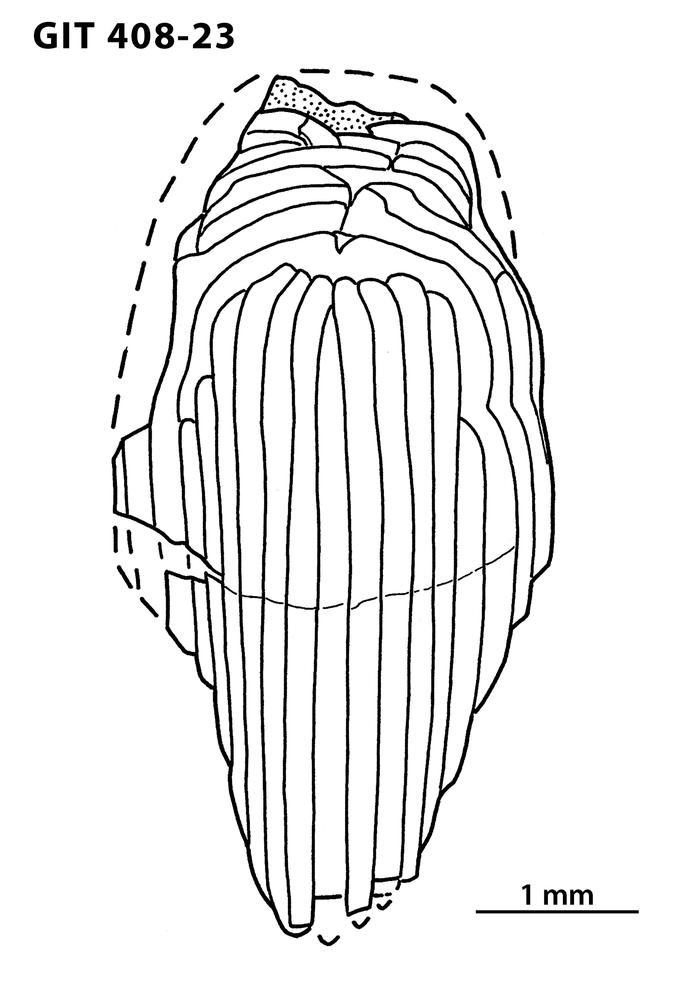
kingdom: Animalia
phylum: Chordata
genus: Archegonaspis
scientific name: Archegonaspis
